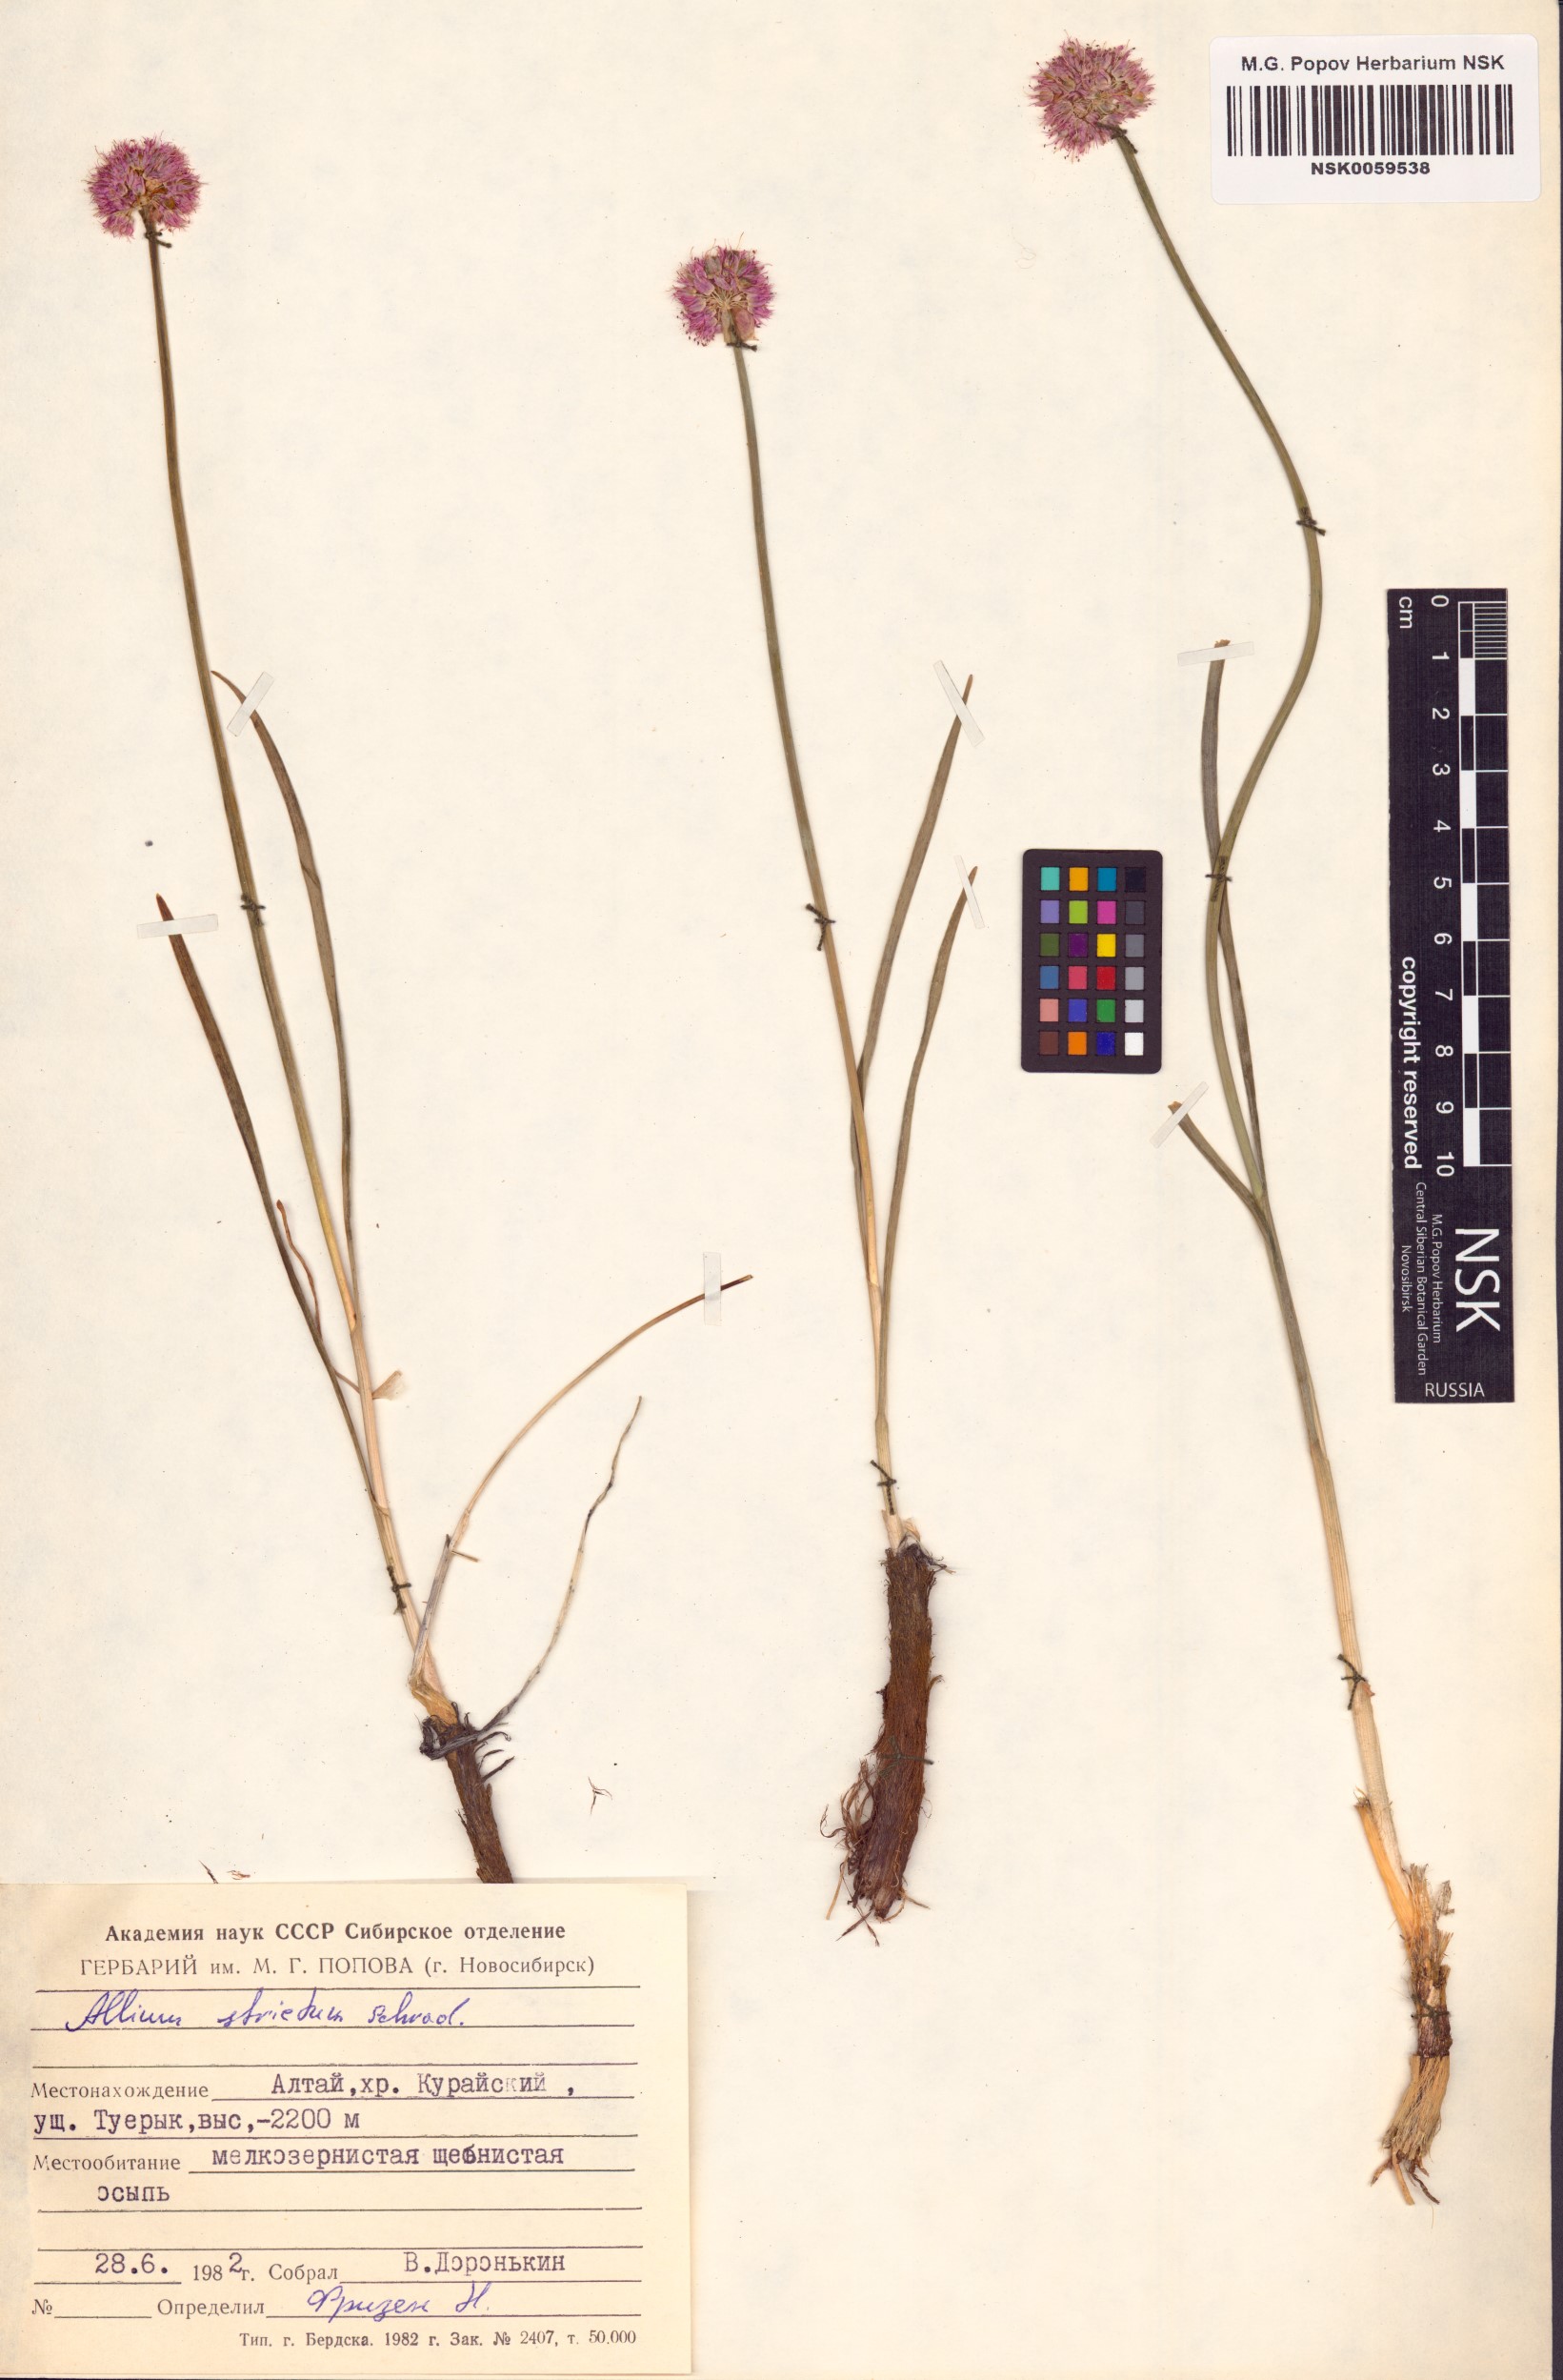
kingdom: Plantae
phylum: Tracheophyta
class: Liliopsida
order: Asparagales
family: Amaryllidaceae
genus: Allium
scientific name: Allium strictum
